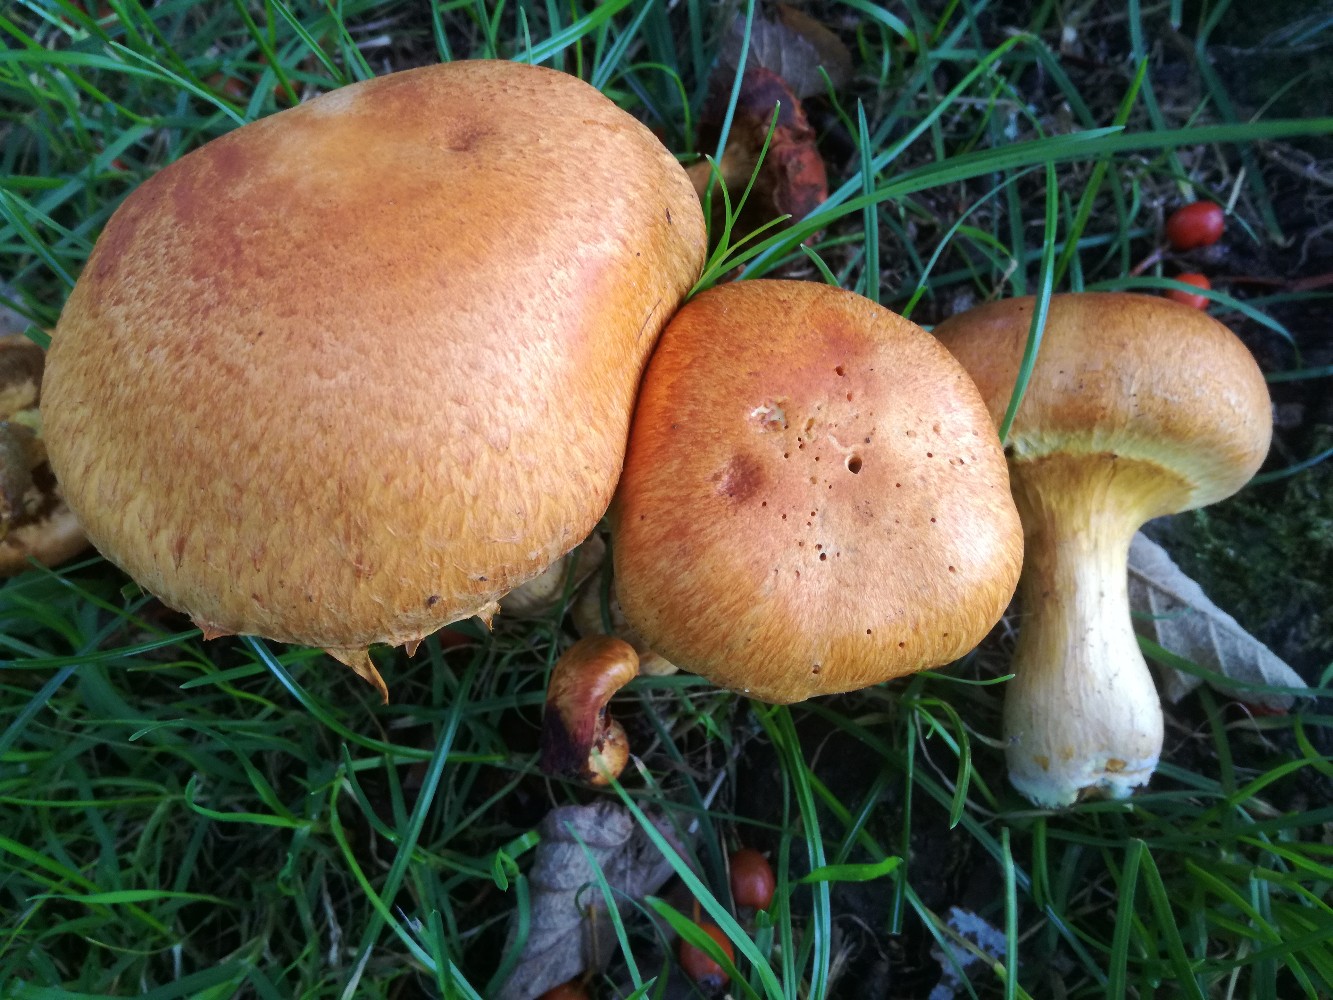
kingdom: Fungi
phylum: Basidiomycota
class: Agaricomycetes
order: Agaricales
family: Hymenogastraceae
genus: Gymnopilus
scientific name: Gymnopilus spectabilis
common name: fibret flammehat
